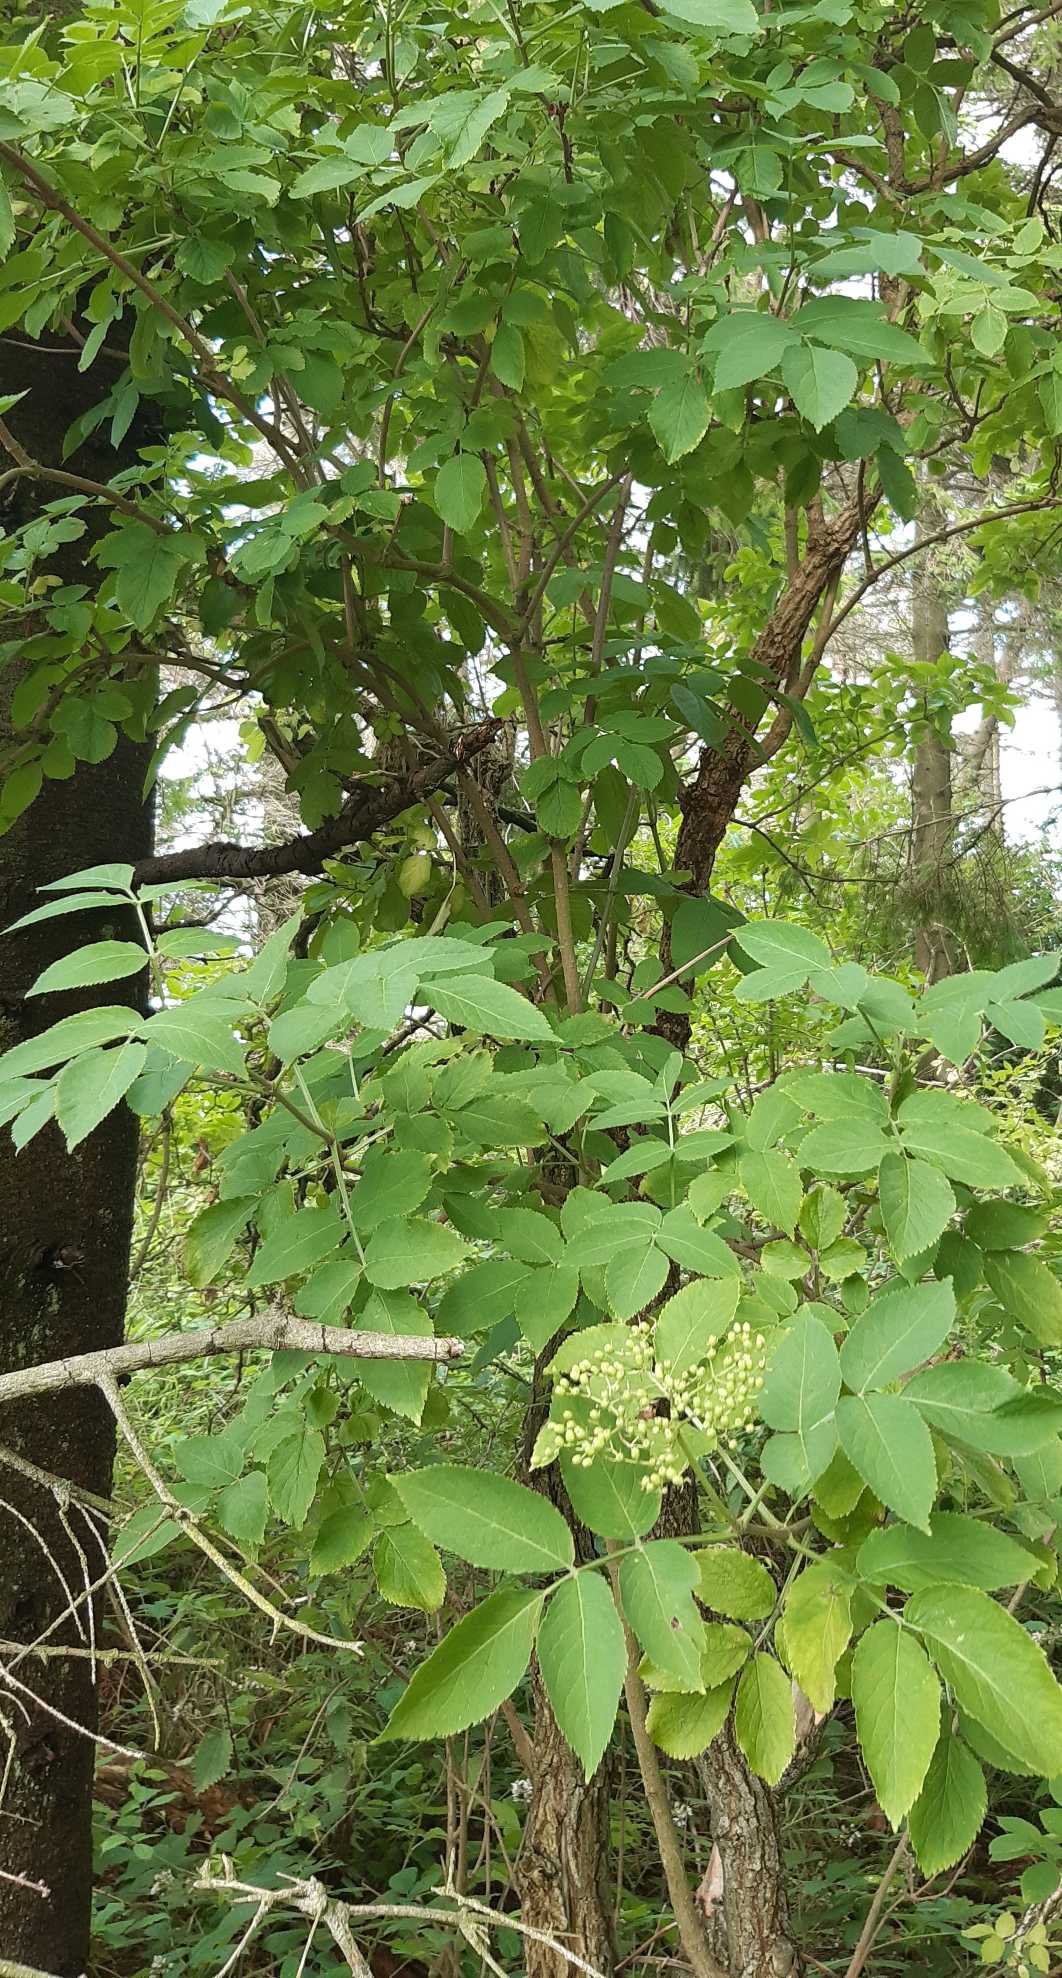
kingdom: Plantae
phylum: Tracheophyta
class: Magnoliopsida
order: Dipsacales
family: Viburnaceae
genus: Sambucus
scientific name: Sambucus nigra
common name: Almindelig hyld
